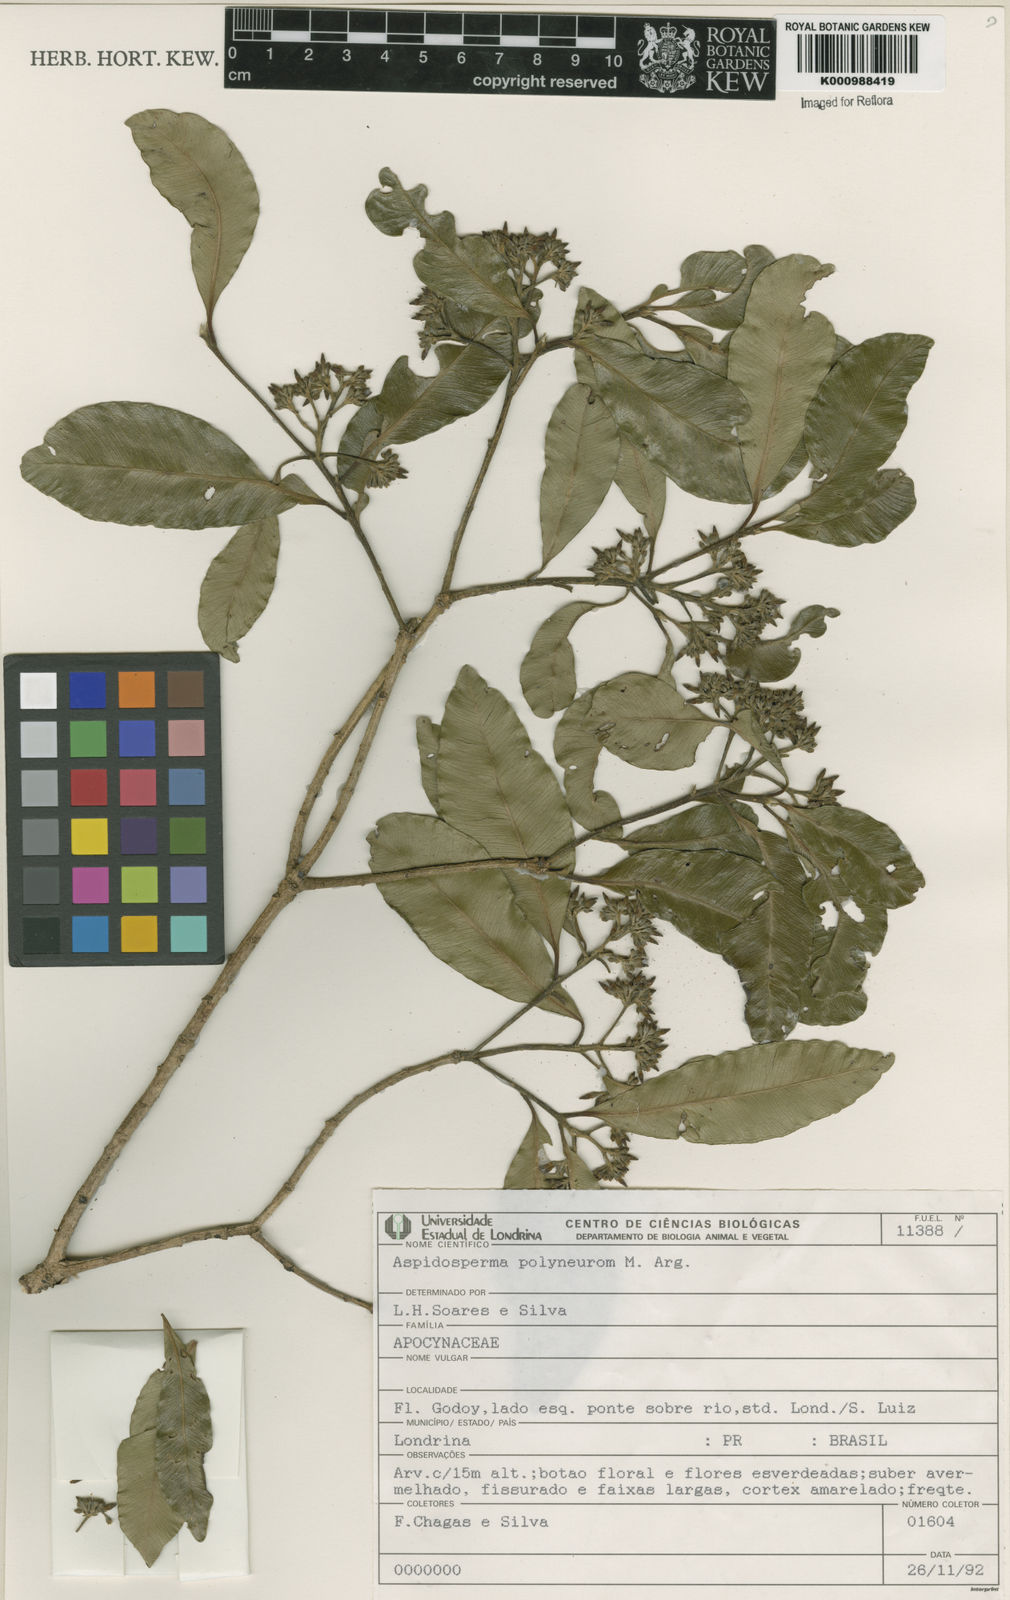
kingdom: Plantae
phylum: Tracheophyta
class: Magnoliopsida
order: Gentianales
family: Apocynaceae
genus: Aspidosperma
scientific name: Aspidosperma
